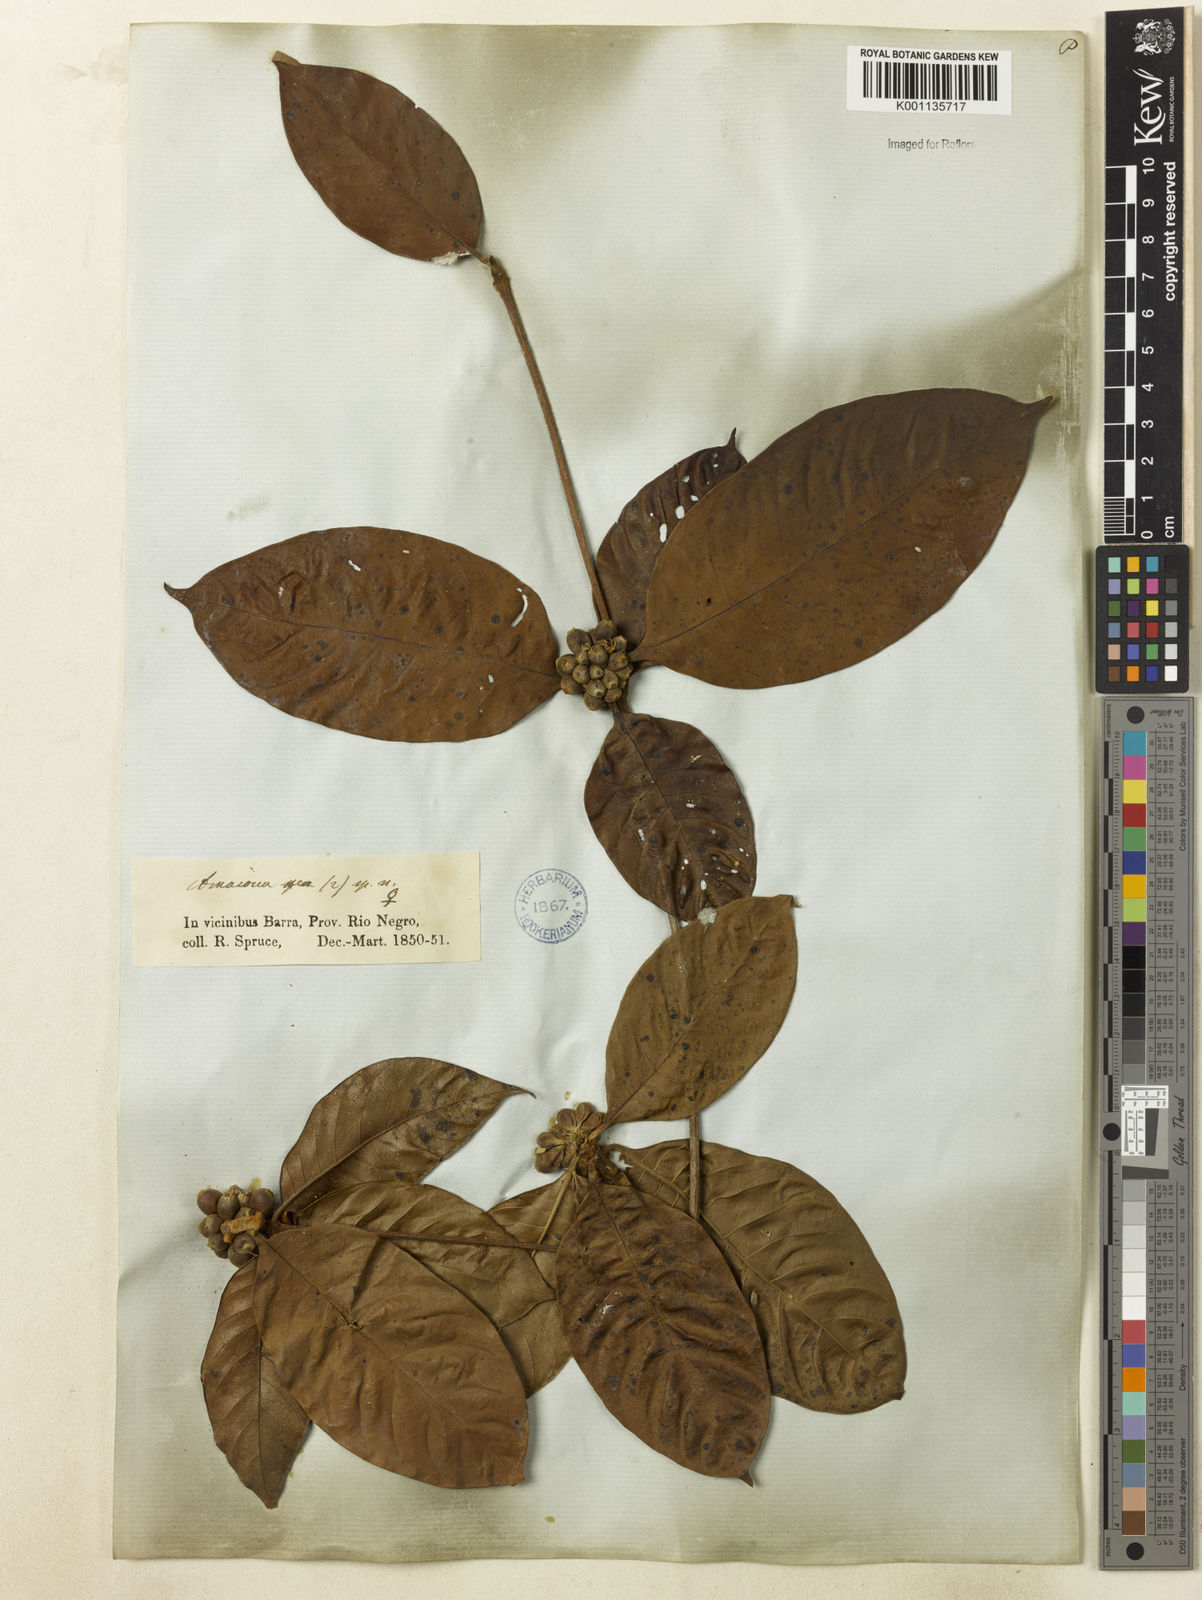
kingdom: Plantae
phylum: Tracheophyta
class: Magnoliopsida
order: Gentianales
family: Rubiaceae
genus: Amaioua
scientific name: Amaioua
